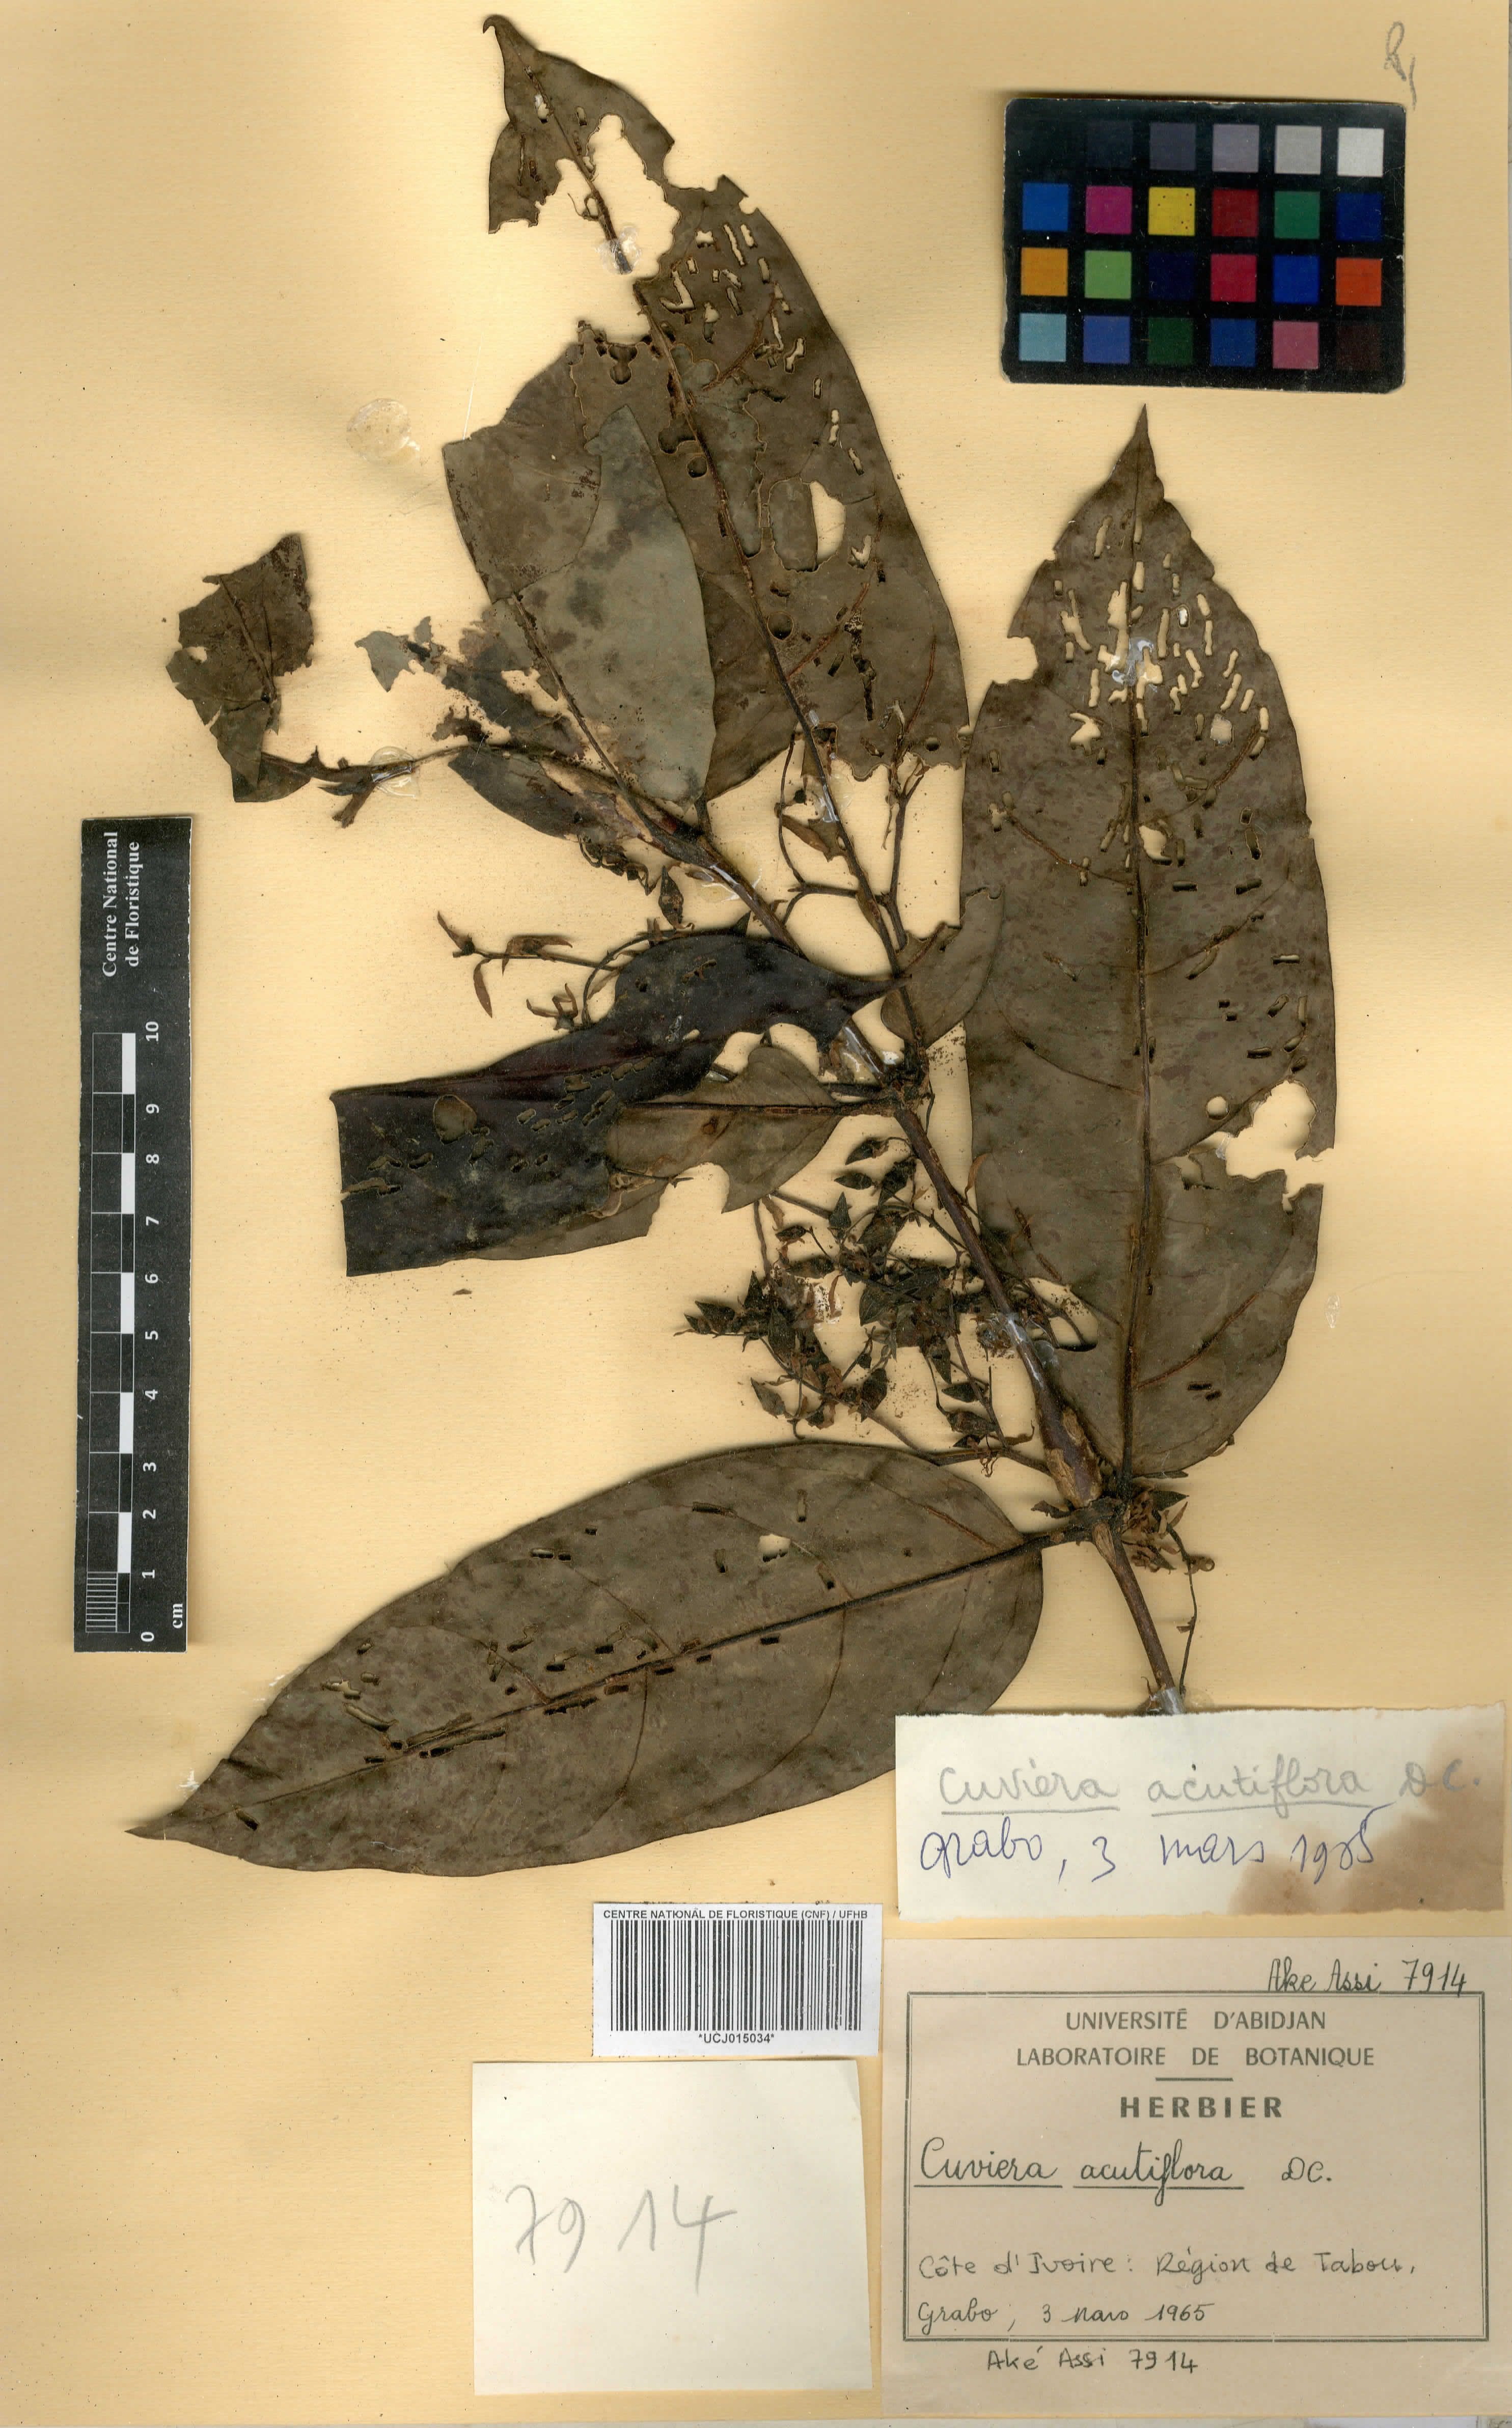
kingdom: Plantae
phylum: Tracheophyta
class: Magnoliopsida
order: Gentianales
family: Rubiaceae
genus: Cuviera
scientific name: Cuviera acutiflora
